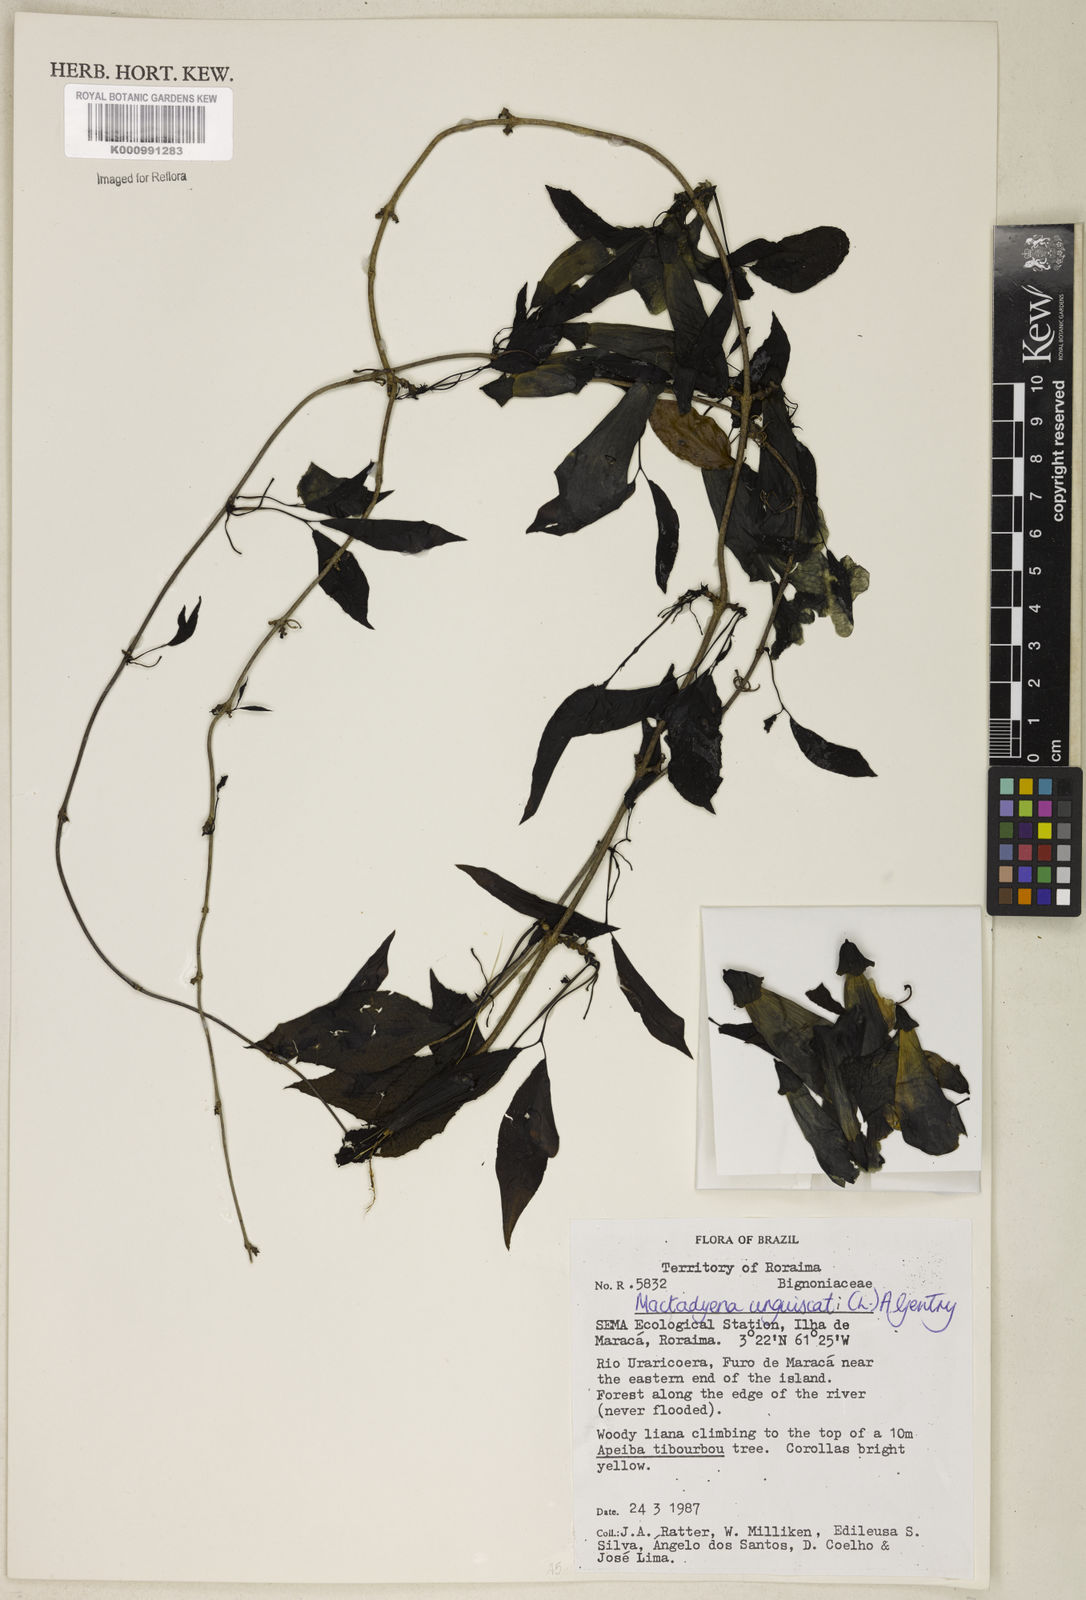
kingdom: Plantae
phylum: Tracheophyta
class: Magnoliopsida
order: Lamiales
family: Bignoniaceae
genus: Dolichandra
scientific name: Dolichandra unguis-cati
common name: Catclaw vine
